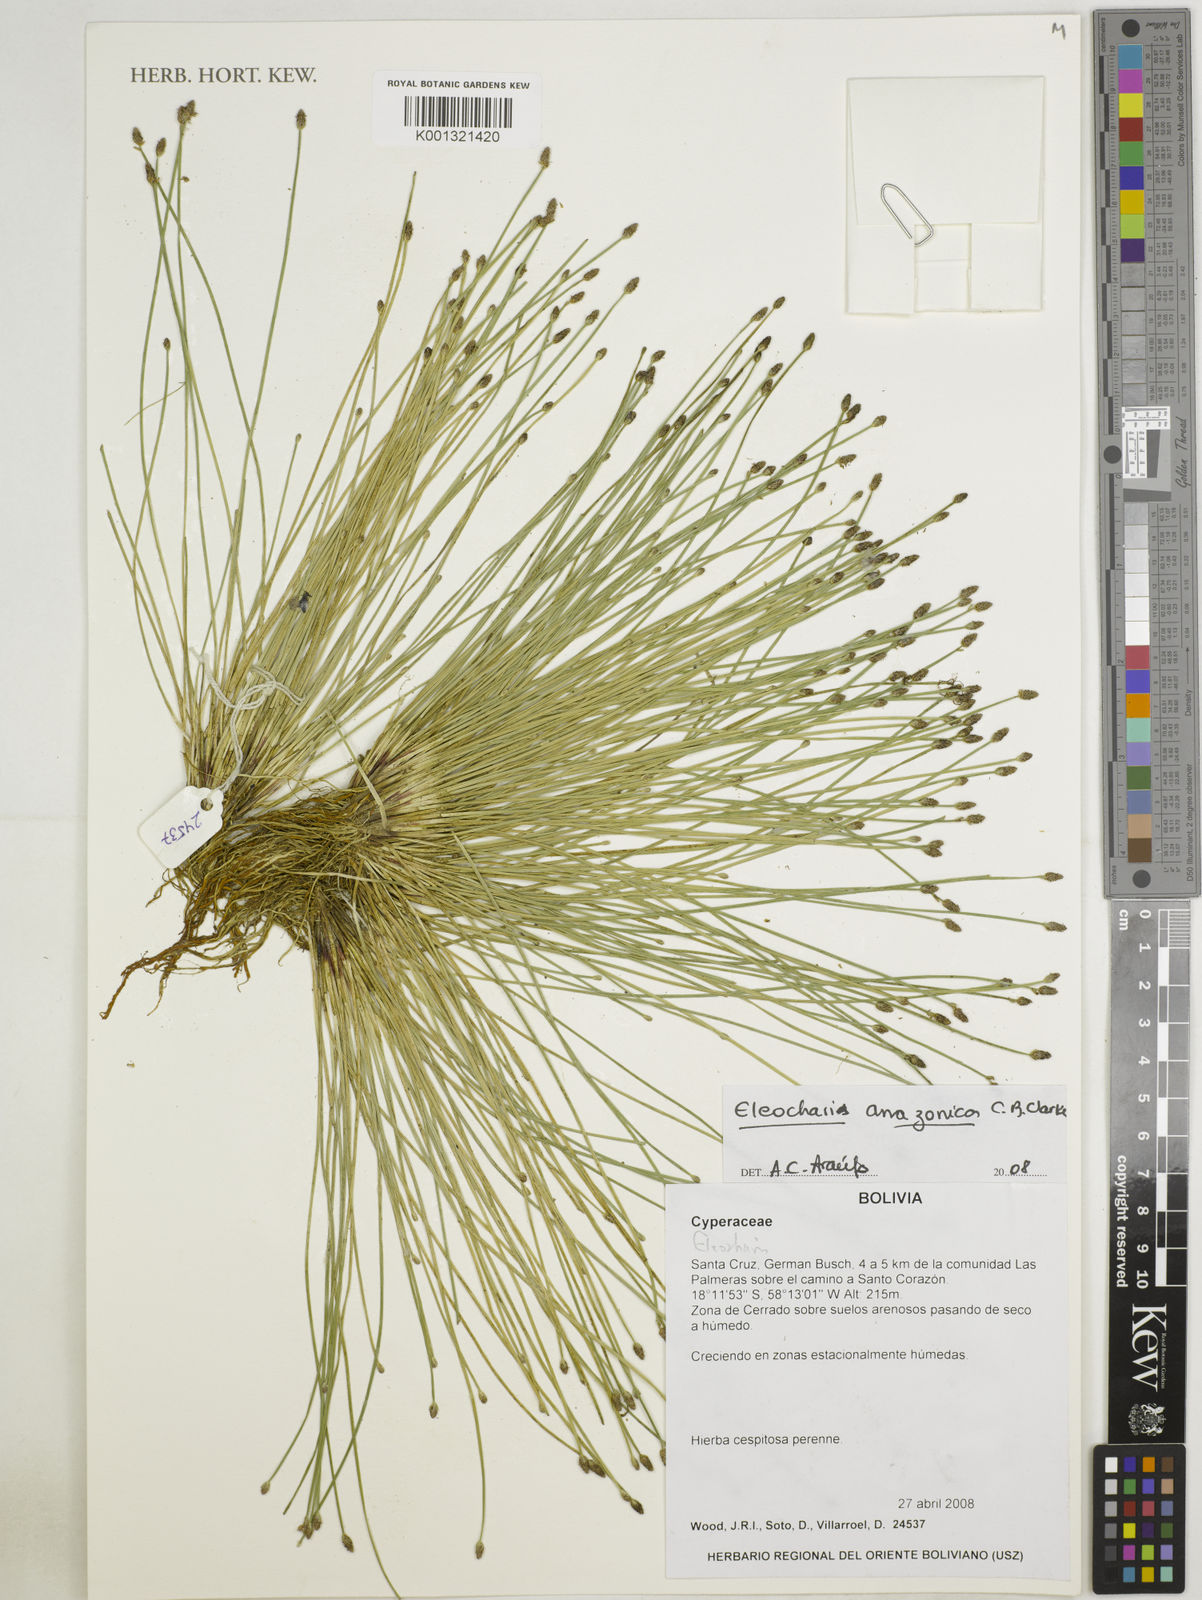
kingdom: Plantae
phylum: Tracheophyta
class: Liliopsida
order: Poales
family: Cyperaceae
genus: Eleocharis
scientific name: Eleocharis amazonica
